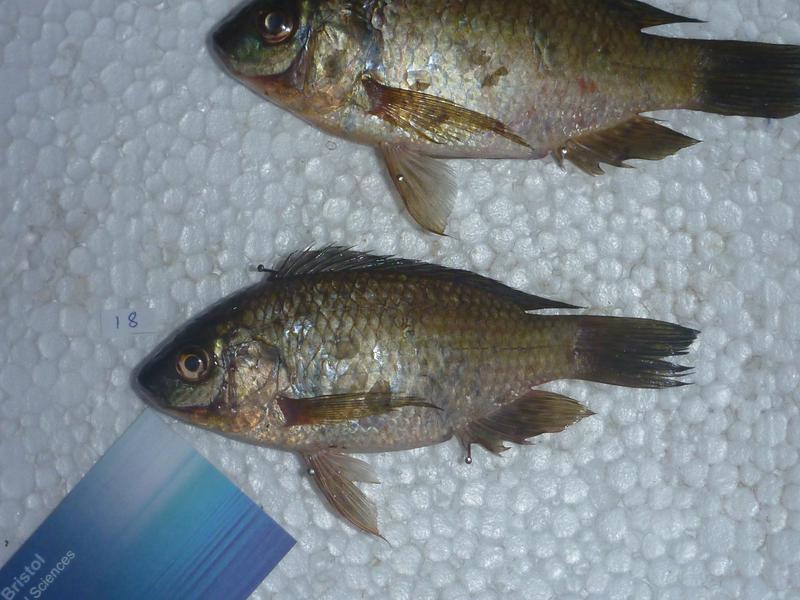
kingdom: Animalia
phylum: Chordata
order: Perciformes
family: Cichlidae
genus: Oreochromis
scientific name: Oreochromis leucostictus
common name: Blue spotted tilapia
